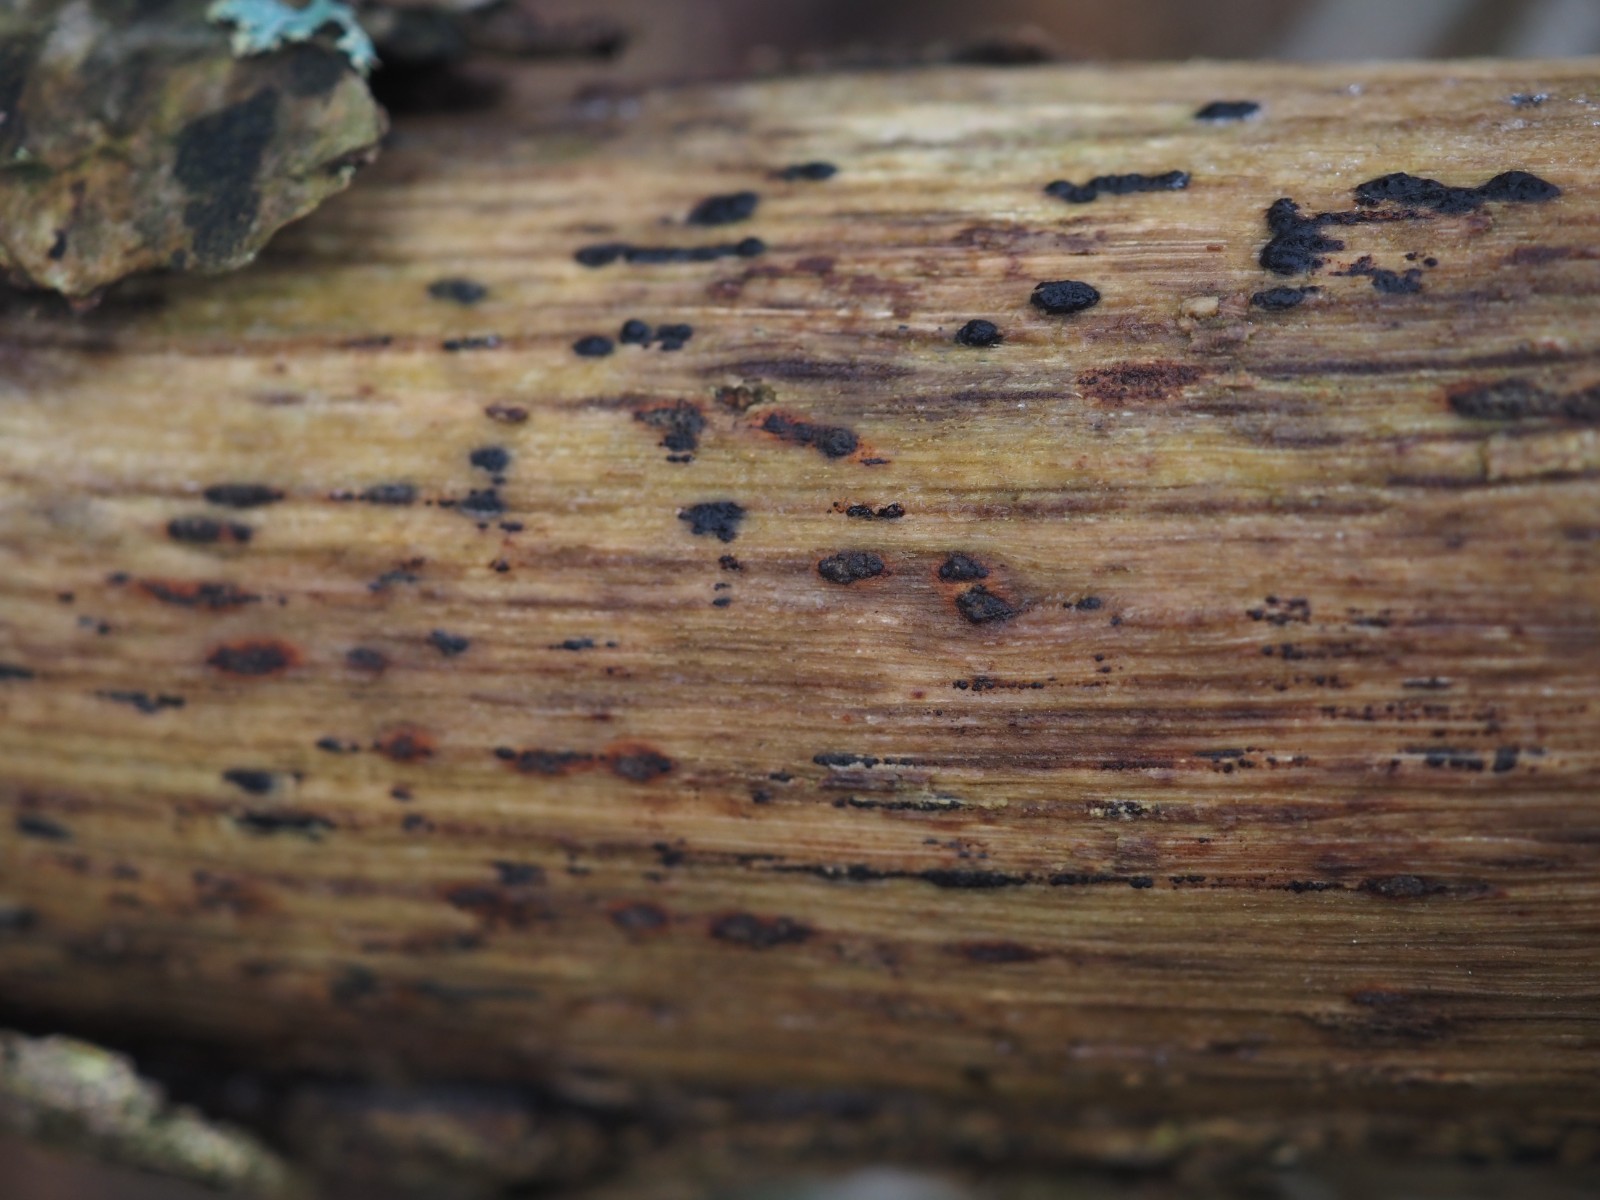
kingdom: Fungi
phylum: Ascomycota
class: Sordariomycetes
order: Xylariales
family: Xylariaceae
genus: Euepixylon
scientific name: Euepixylon udum
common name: ege-kuldyne
